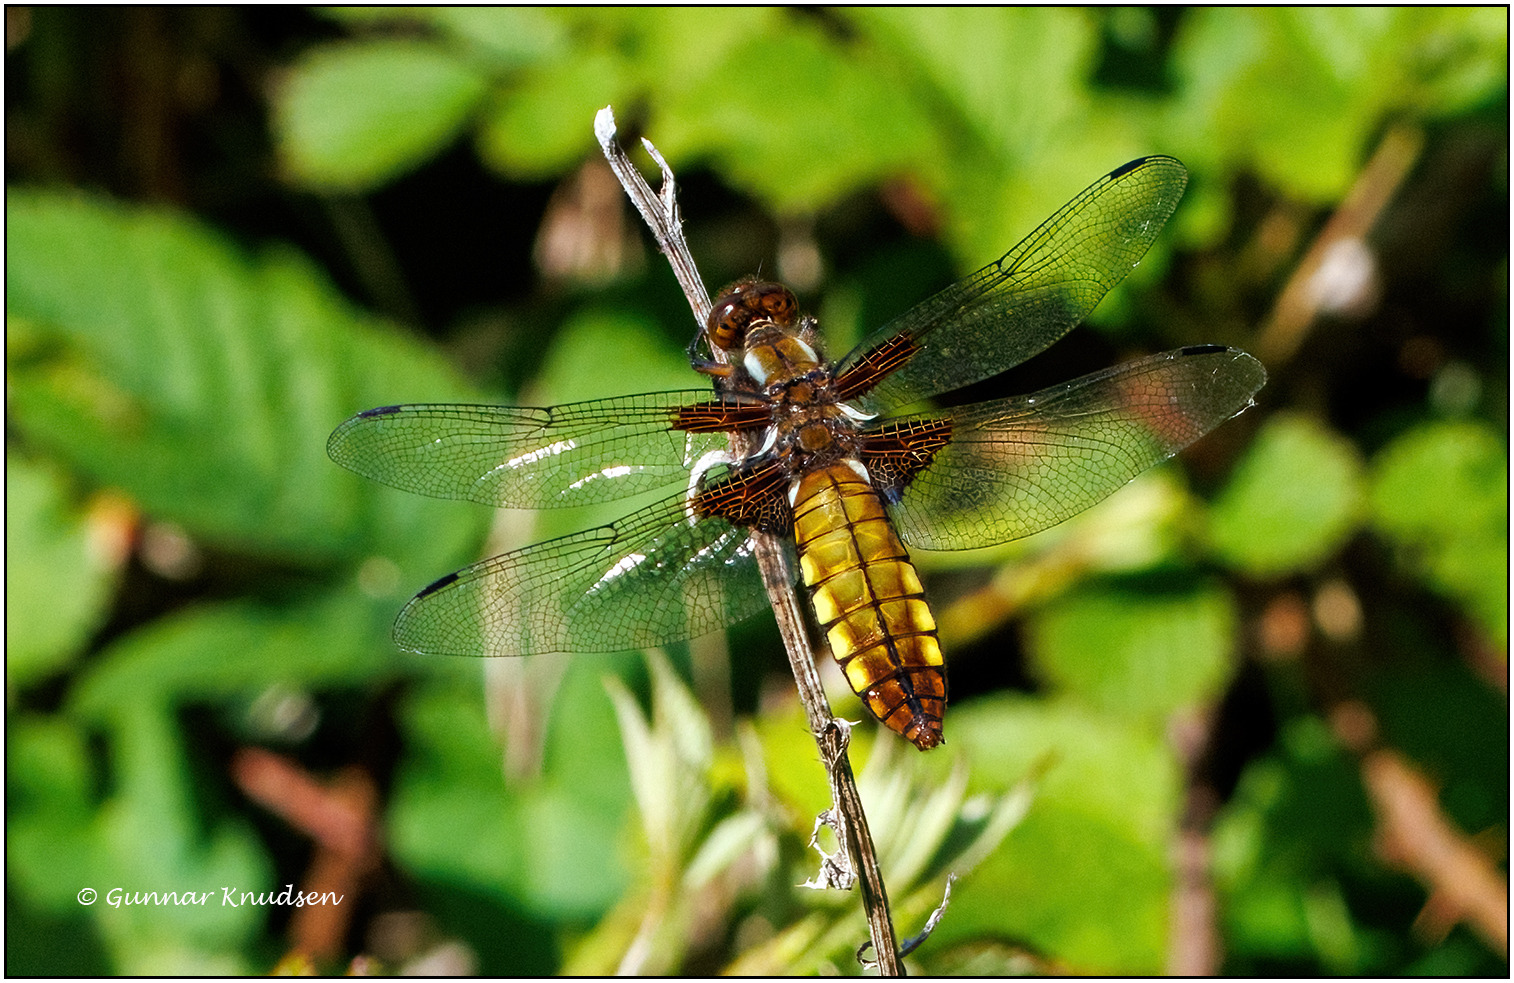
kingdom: Animalia
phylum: Arthropoda
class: Insecta
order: Odonata
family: Libellulidae
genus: Libellula
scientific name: Libellula depressa
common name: Blå libel
